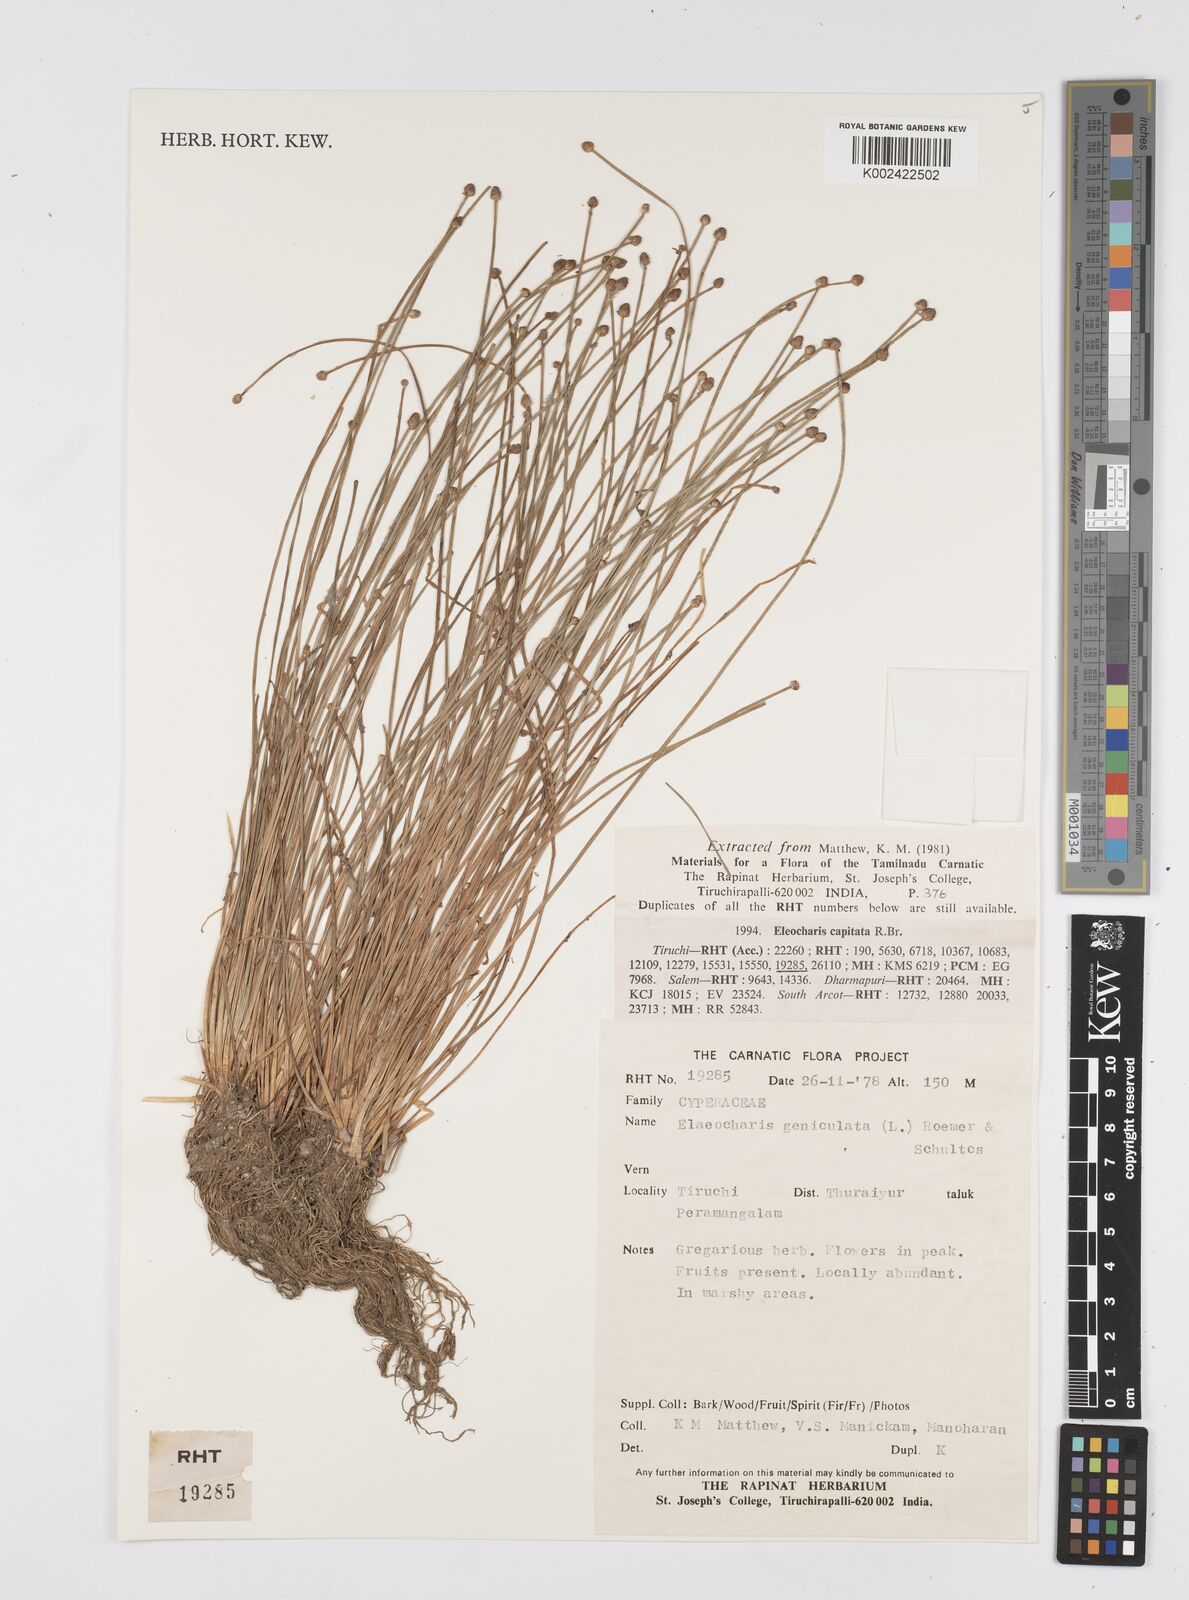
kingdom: Plantae
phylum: Tracheophyta
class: Liliopsida
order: Poales
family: Cyperaceae
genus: Eleocharis
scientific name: Eleocharis geniculata
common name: Canada spikesedge
